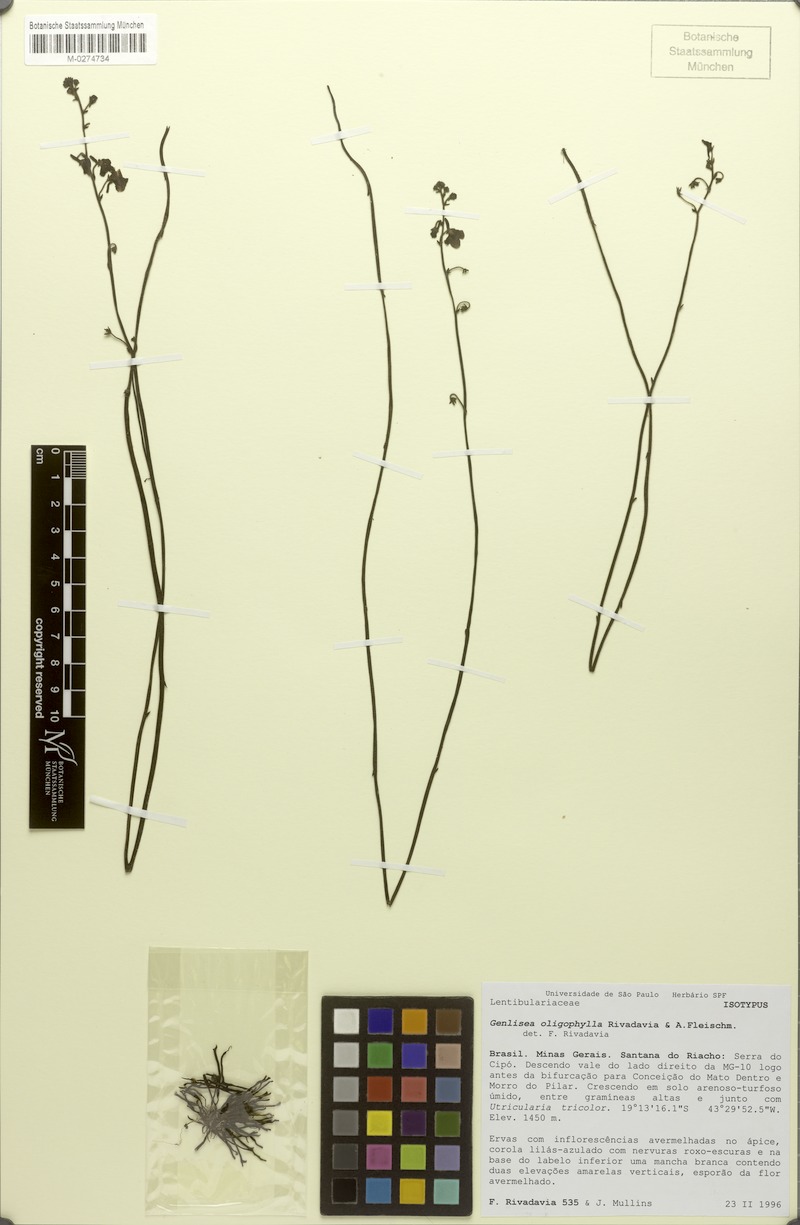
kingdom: Plantae
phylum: Tracheophyta
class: Magnoliopsida
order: Lamiales
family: Lentibulariaceae
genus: Genlisea
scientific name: Genlisea oligophylla
